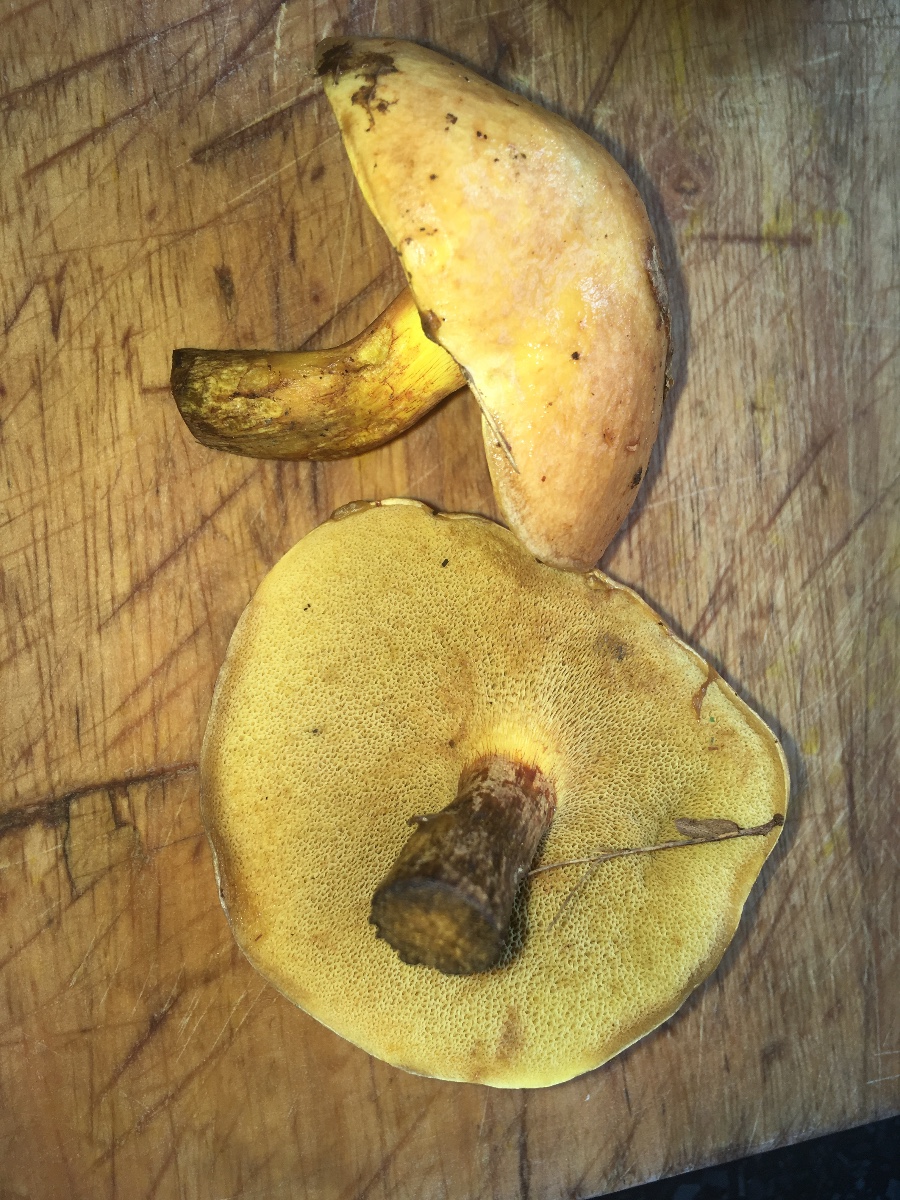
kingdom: Fungi
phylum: Basidiomycota
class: Agaricomycetes
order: Boletales
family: Suillaceae
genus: Suillus
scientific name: Suillus grevillei
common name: lærke-slimrørhat
